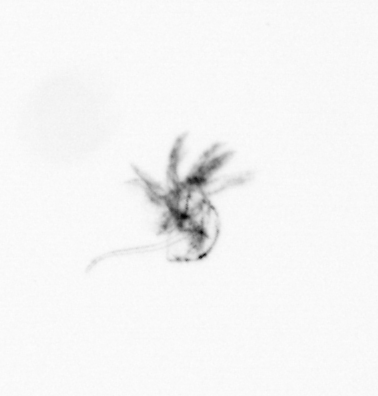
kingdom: Animalia
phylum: Arthropoda
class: Maxillopoda
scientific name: Maxillopoda
